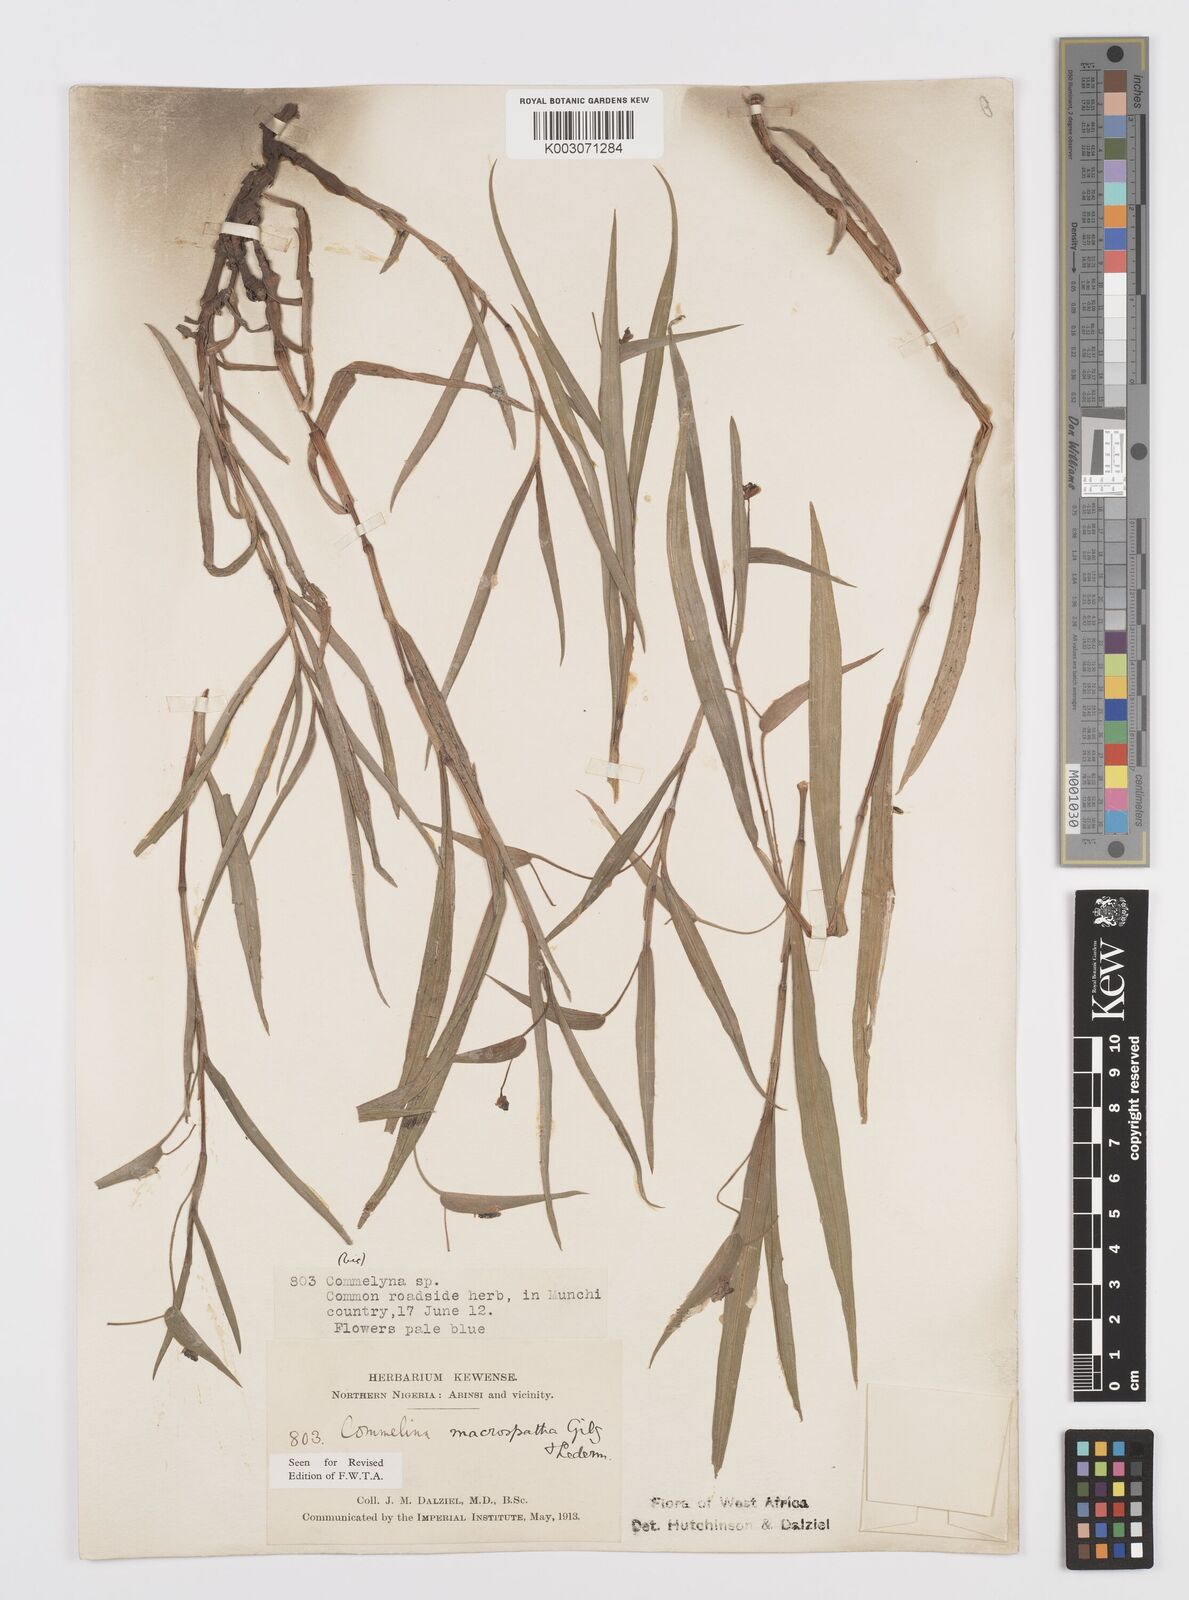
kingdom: Plantae
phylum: Tracheophyta
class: Liliopsida
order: Commelinales
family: Commelinaceae
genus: Commelina
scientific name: Commelina macrospatha
